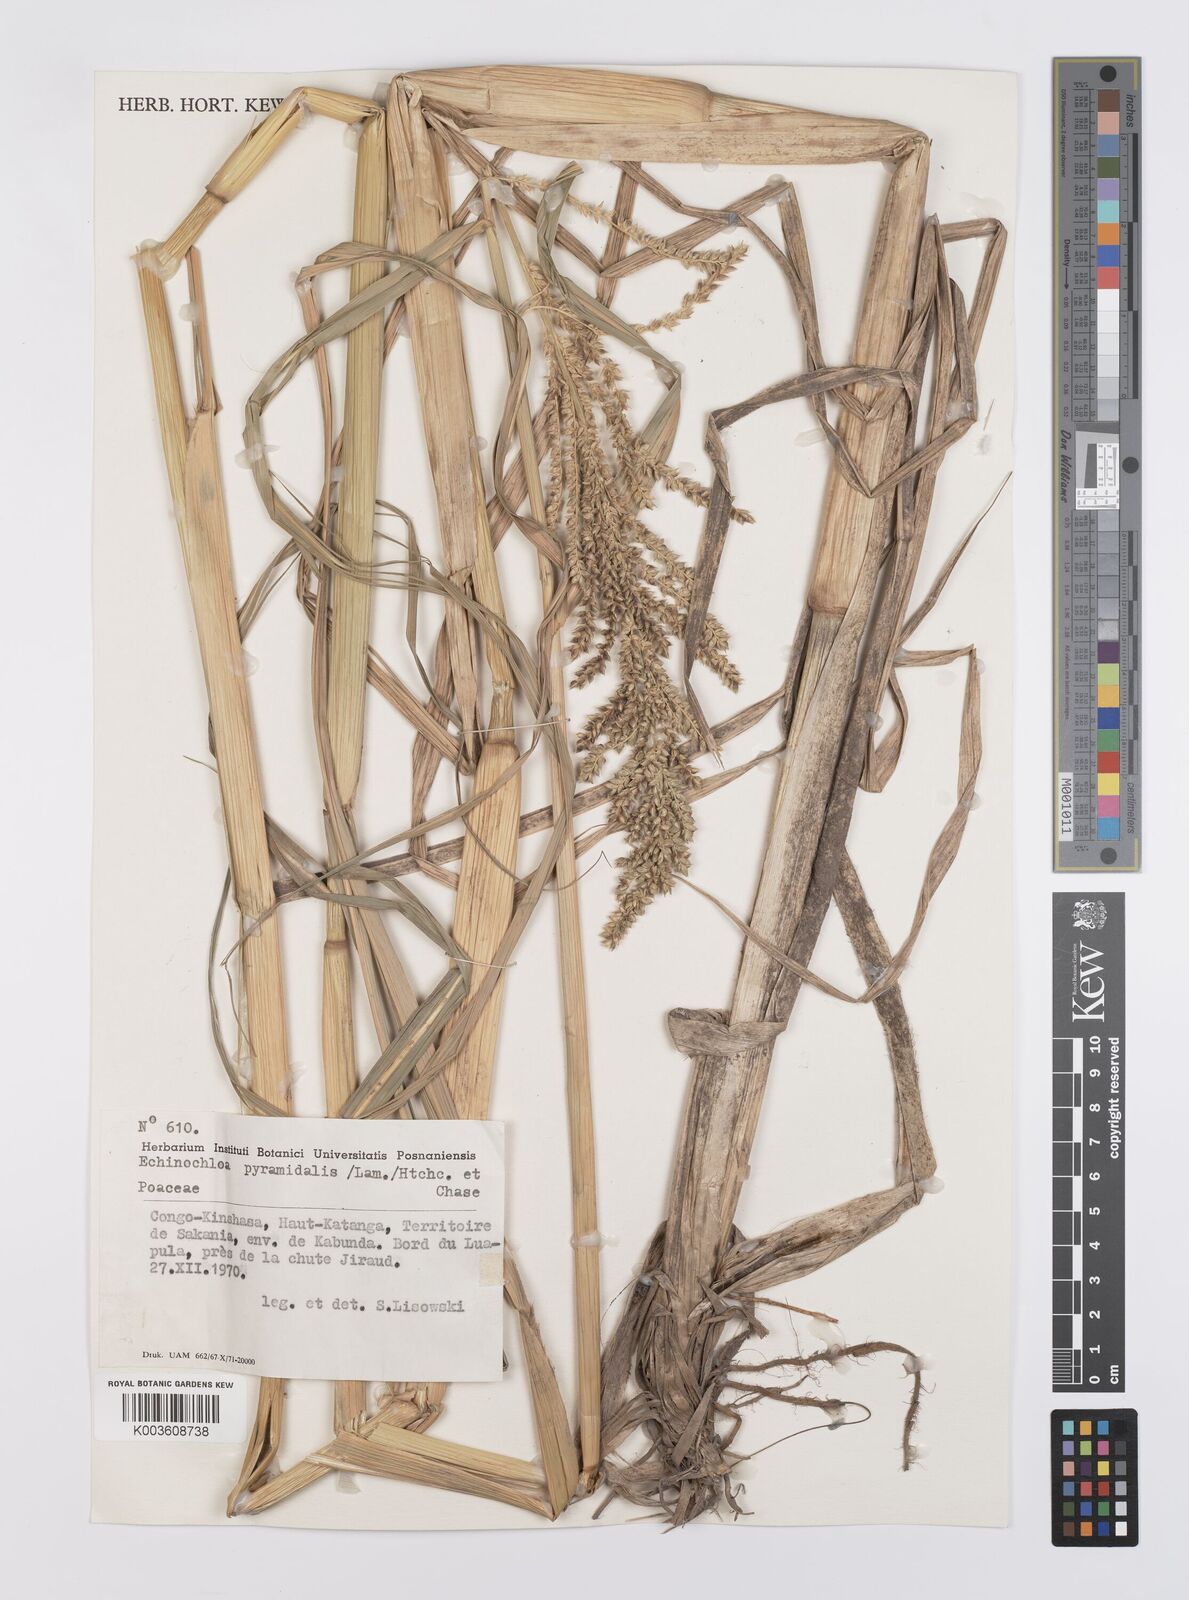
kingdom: Plantae
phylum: Tracheophyta
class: Liliopsida
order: Poales
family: Poaceae
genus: Echinochloa
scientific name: Echinochloa pyramidalis
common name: Antelope grass
